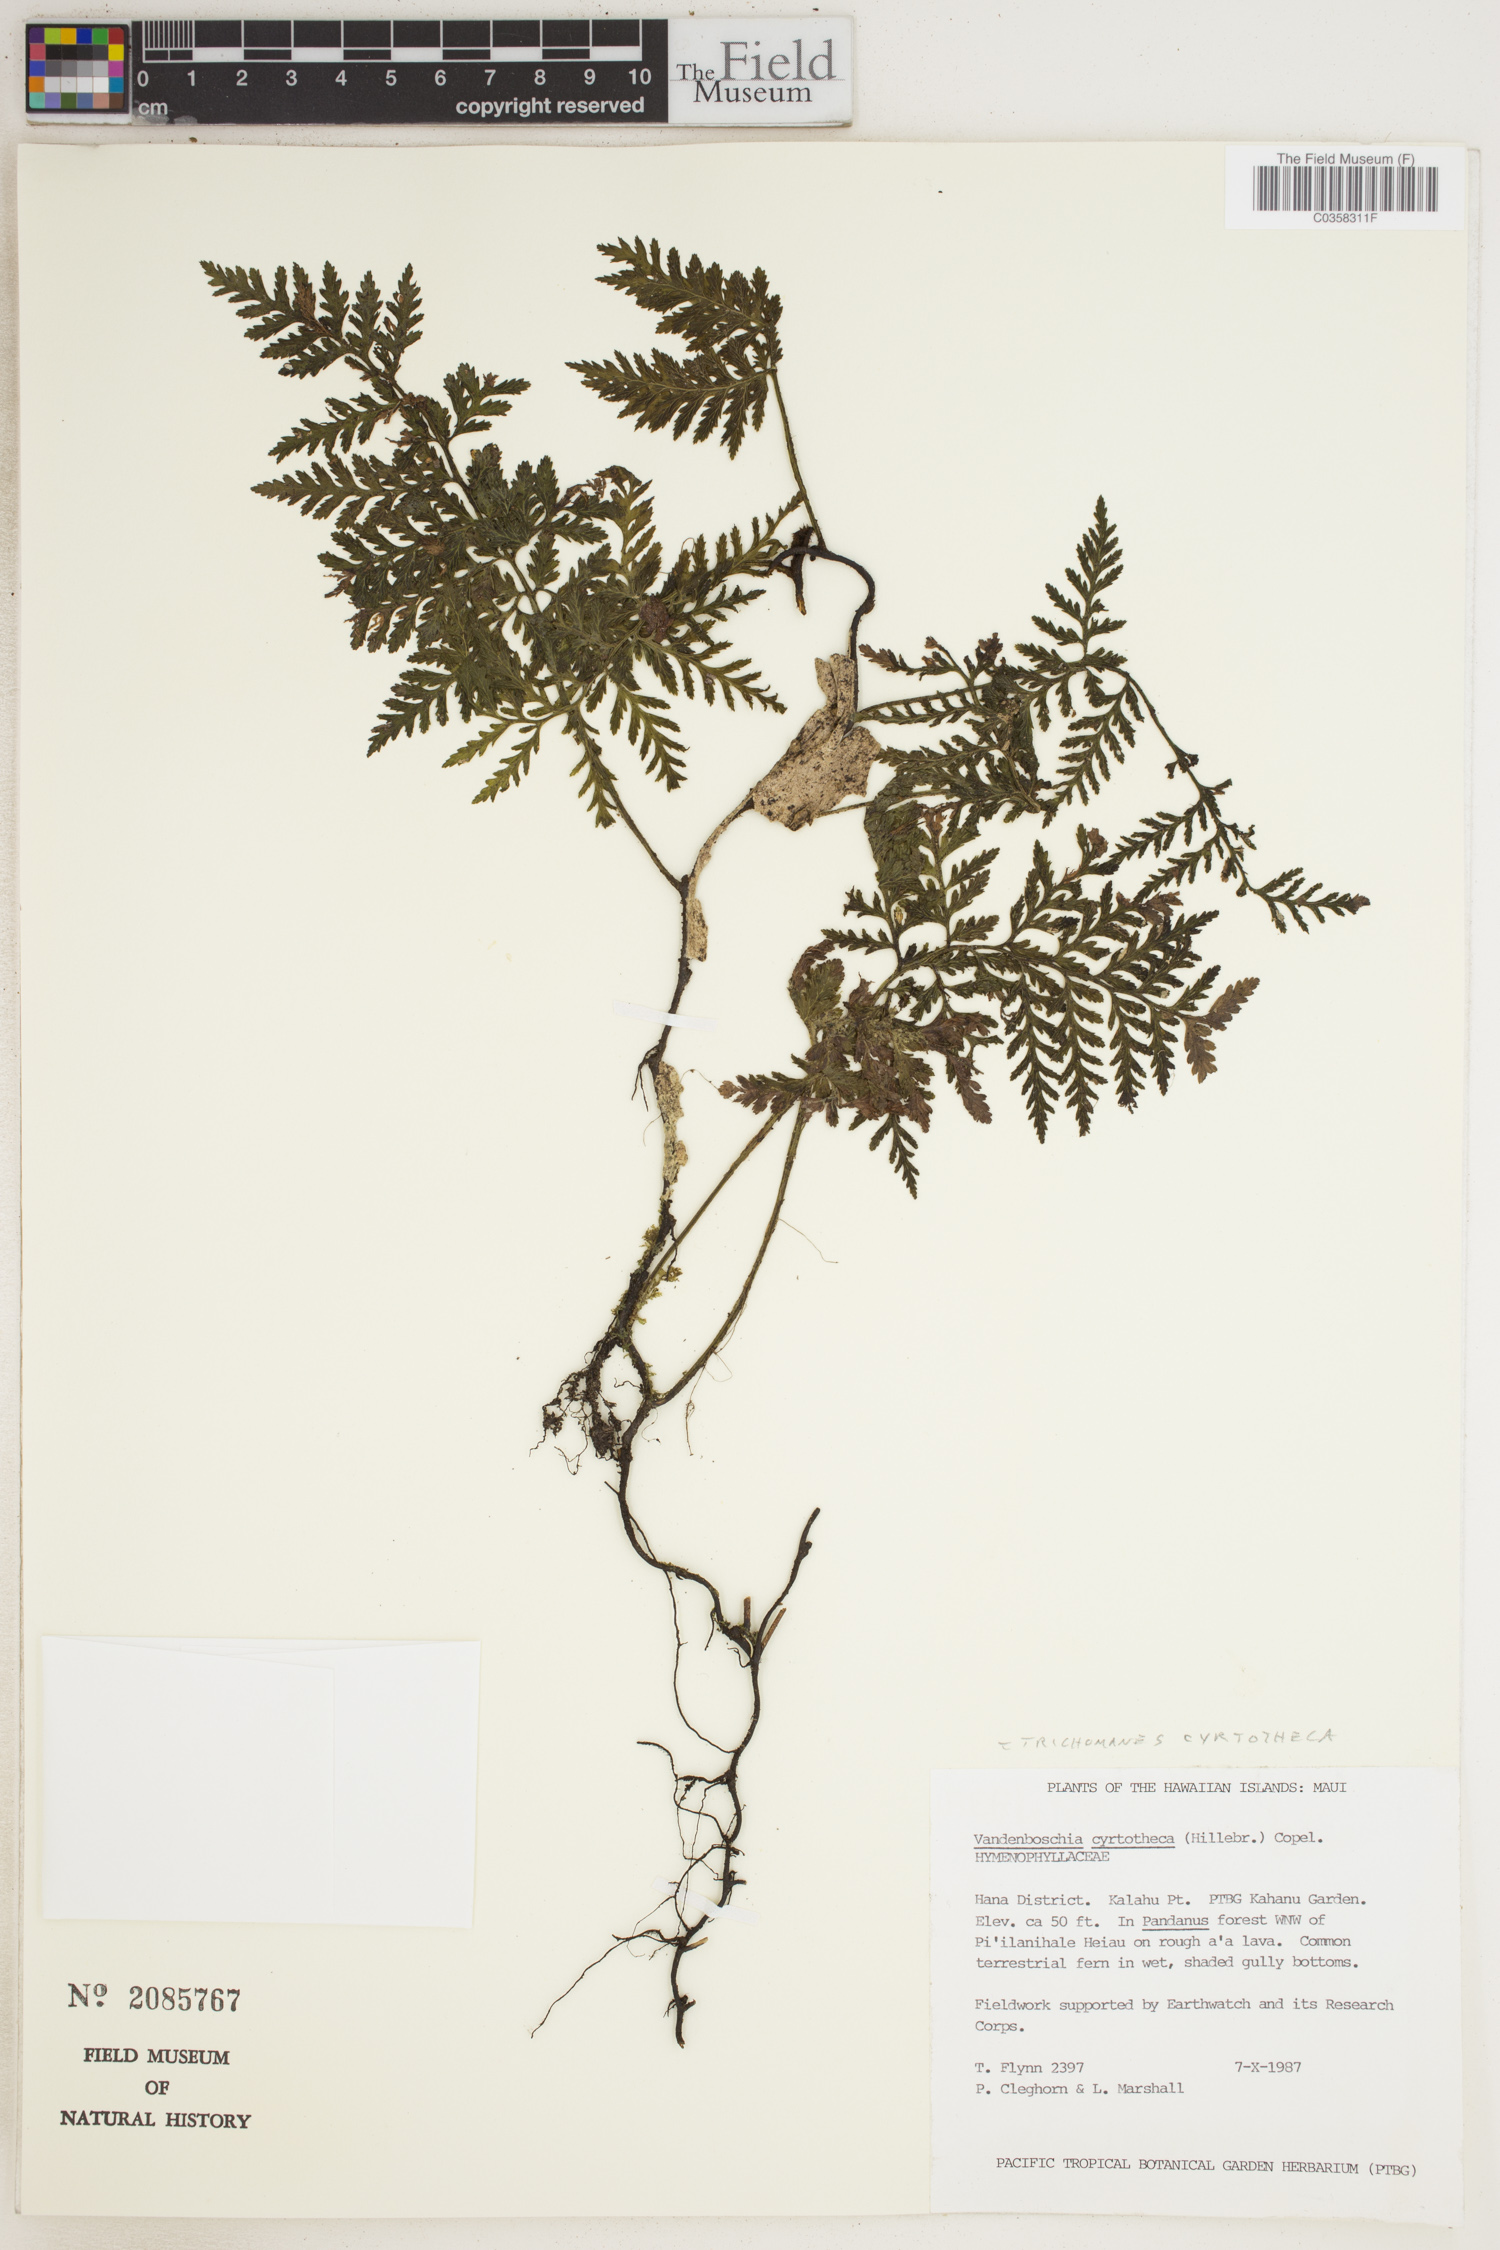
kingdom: Plantae
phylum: Tracheophyta
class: Polypodiopsida
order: Hymenophyllales
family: Hymenophyllaceae
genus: Vandenboschia
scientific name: Vandenboschia cyrtotheca
